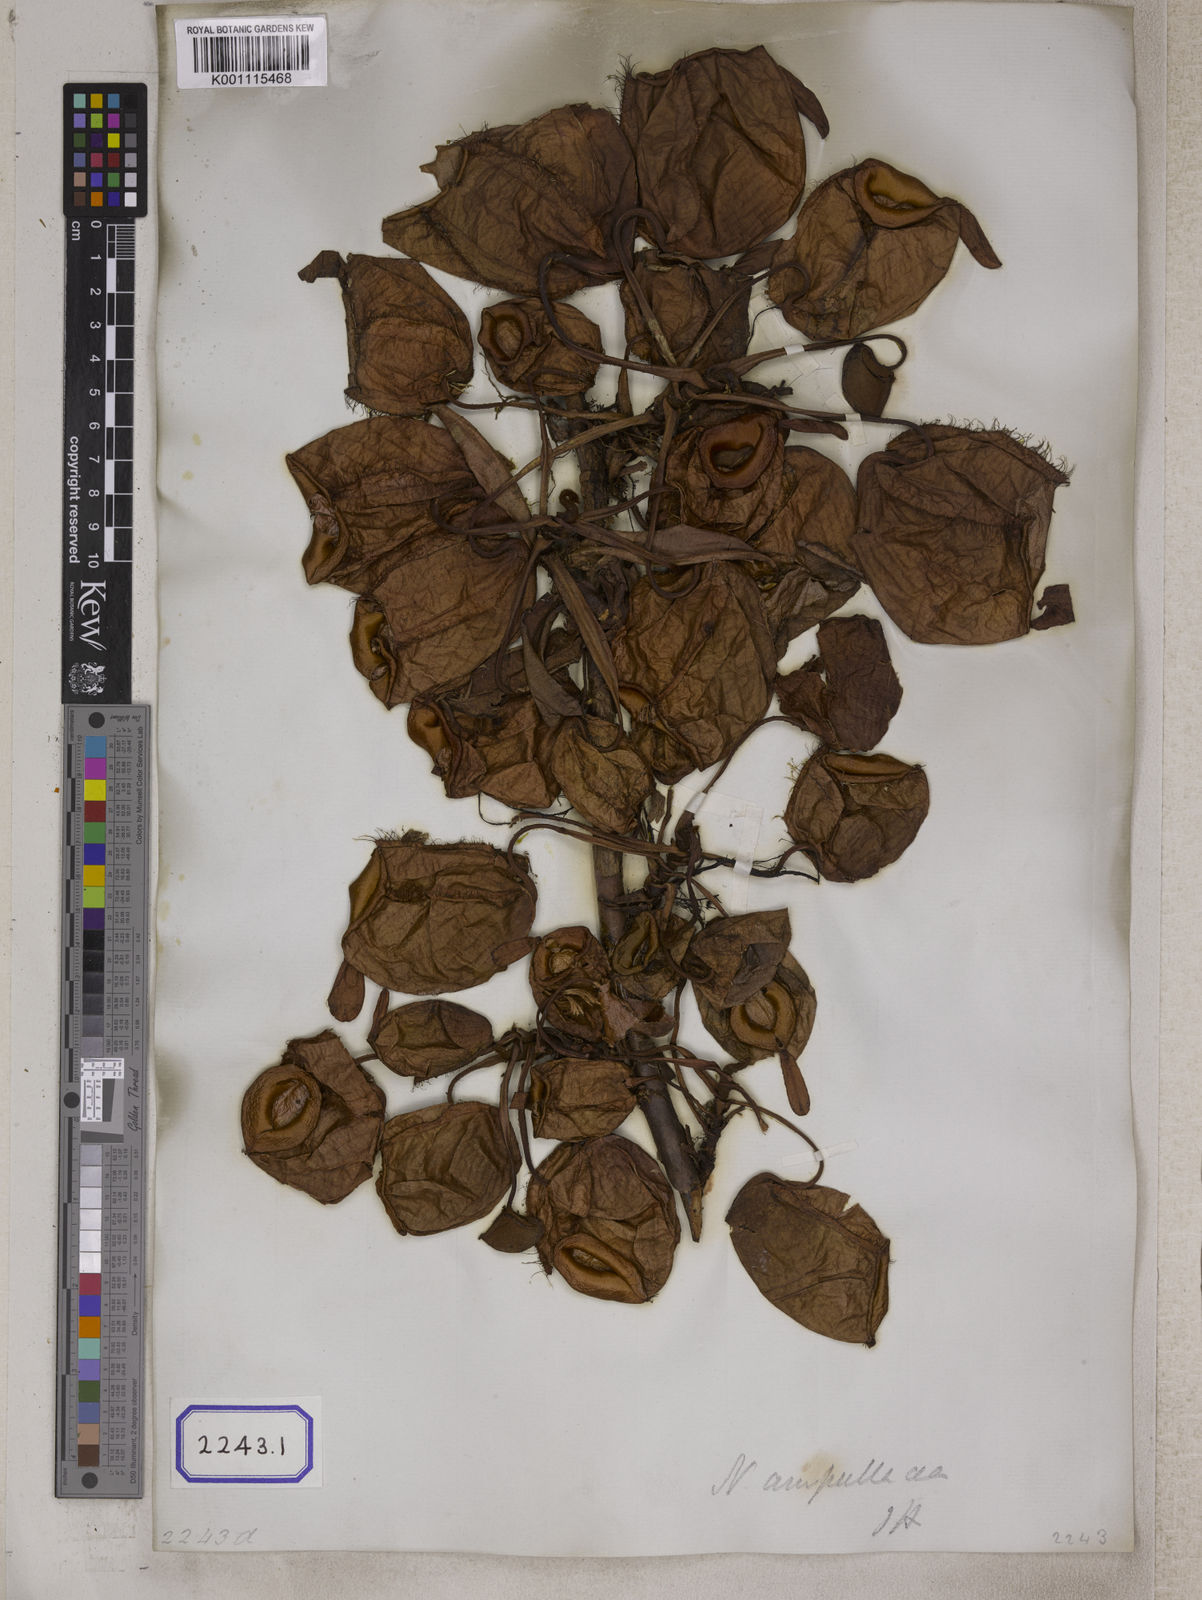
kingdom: Plantae
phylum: Tracheophyta
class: Magnoliopsida
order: Caryophyllales
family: Nepenthaceae
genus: Nepenthes
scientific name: Nepenthes ampullaria
